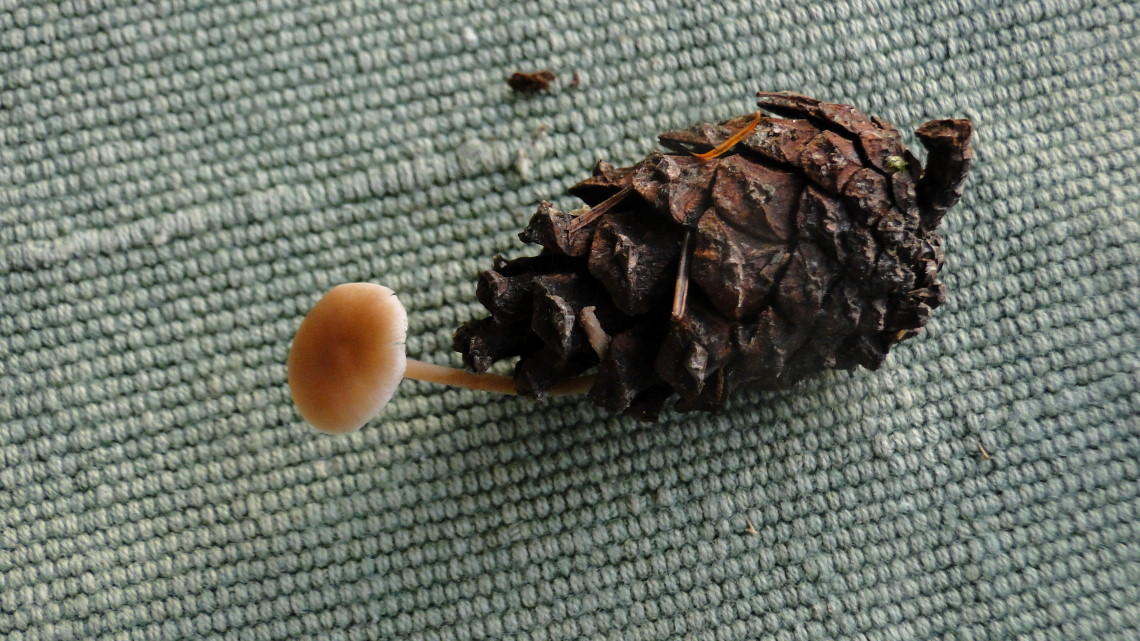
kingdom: Fungi
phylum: Basidiomycota
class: Agaricomycetes
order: Agaricales
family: Marasmiaceae
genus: Baeospora
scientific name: Baeospora myosura
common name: koglebruskhat
